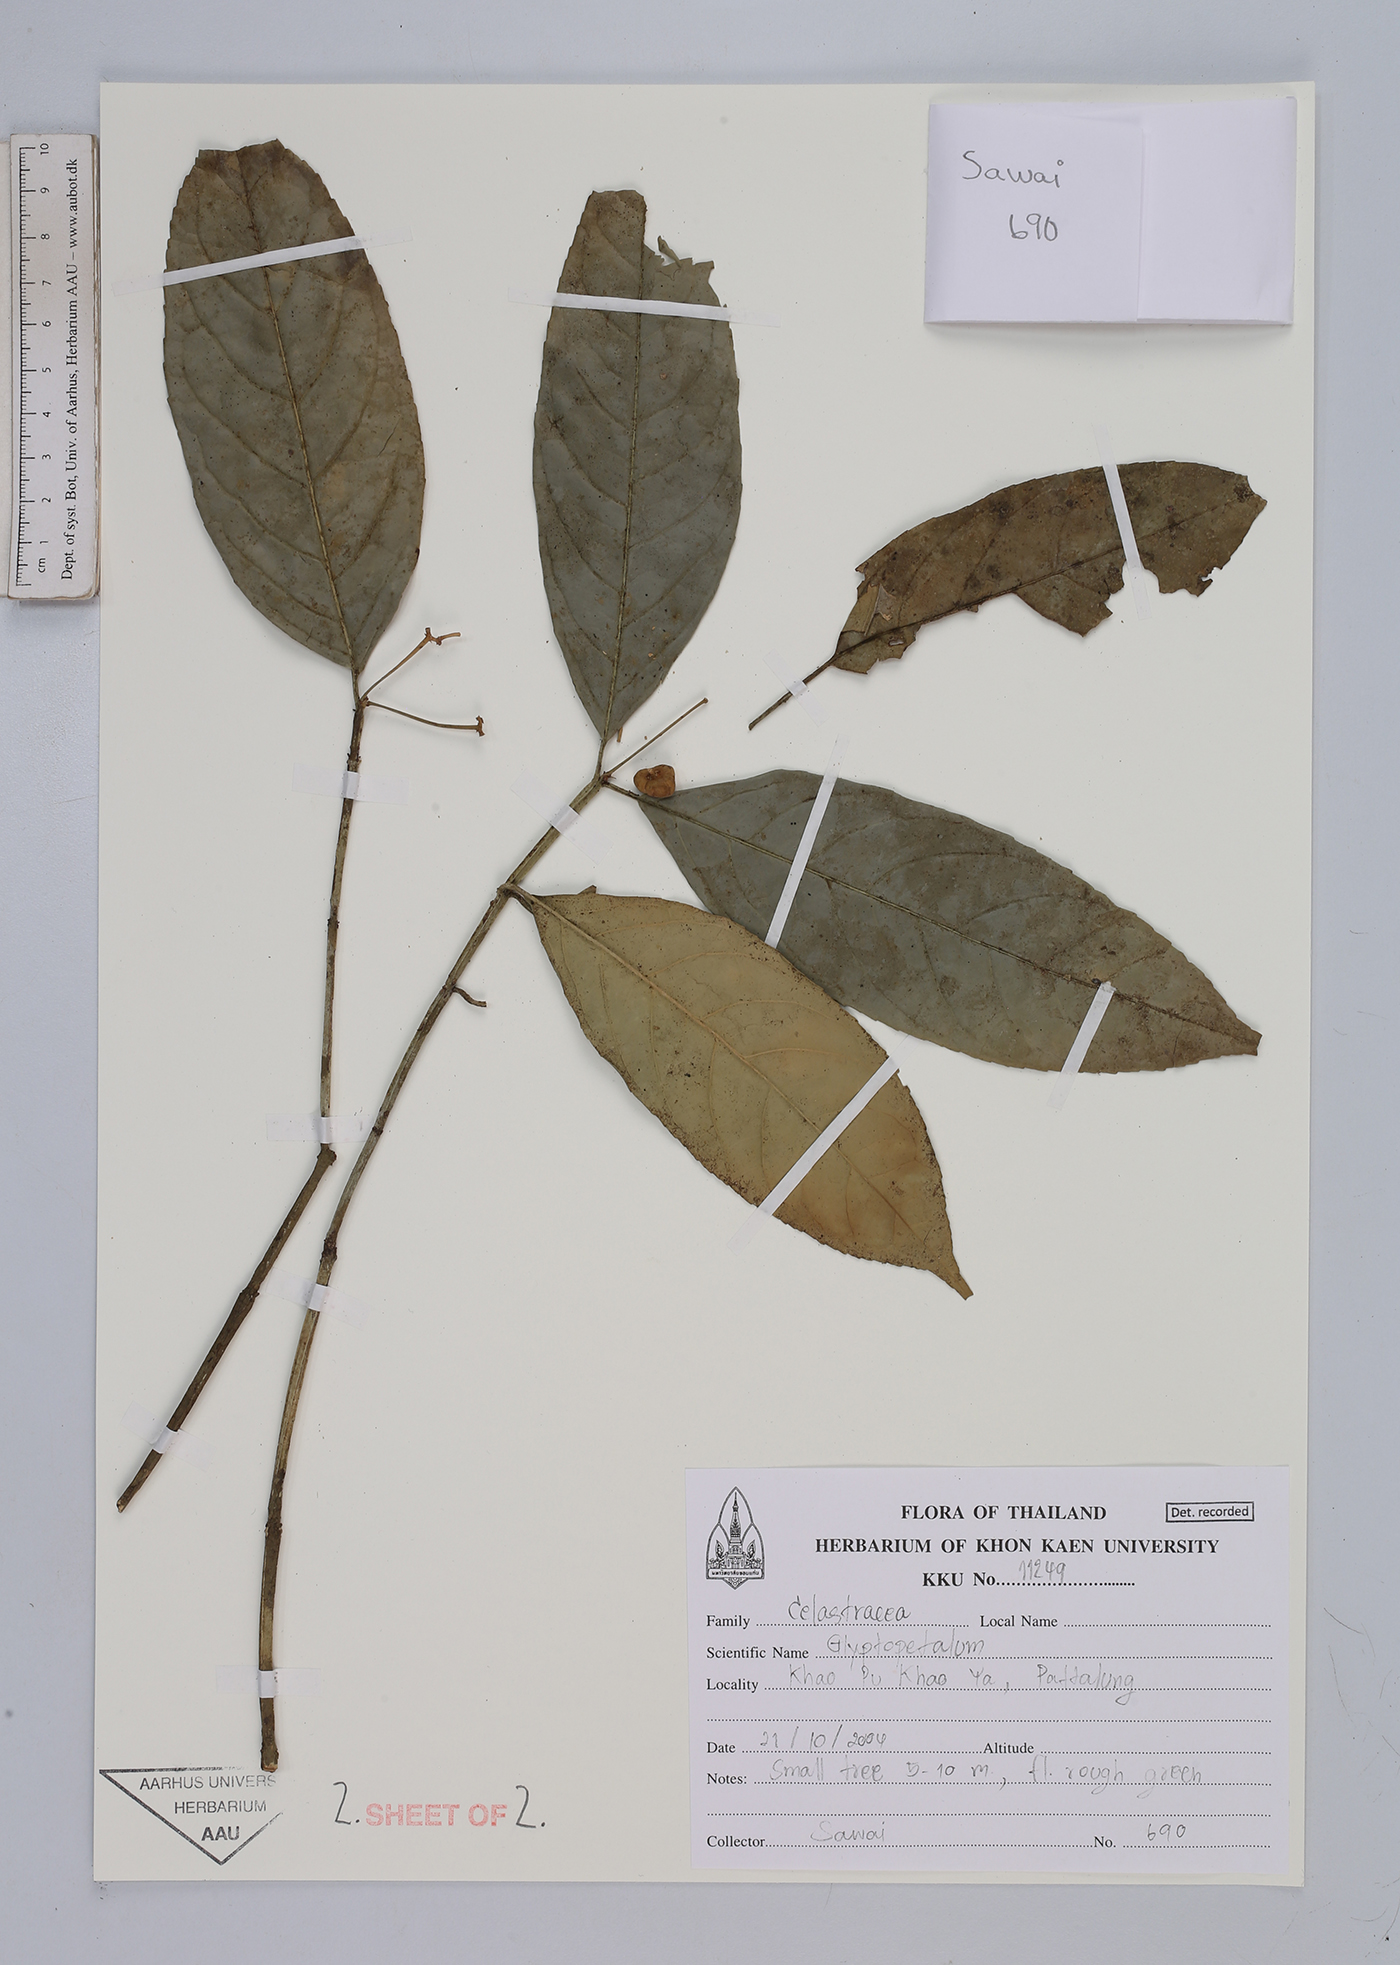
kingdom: Plantae
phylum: Tracheophyta
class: Magnoliopsida
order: Celastrales
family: Celastraceae
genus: Glyptopetalum
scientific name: Glyptopetalum
